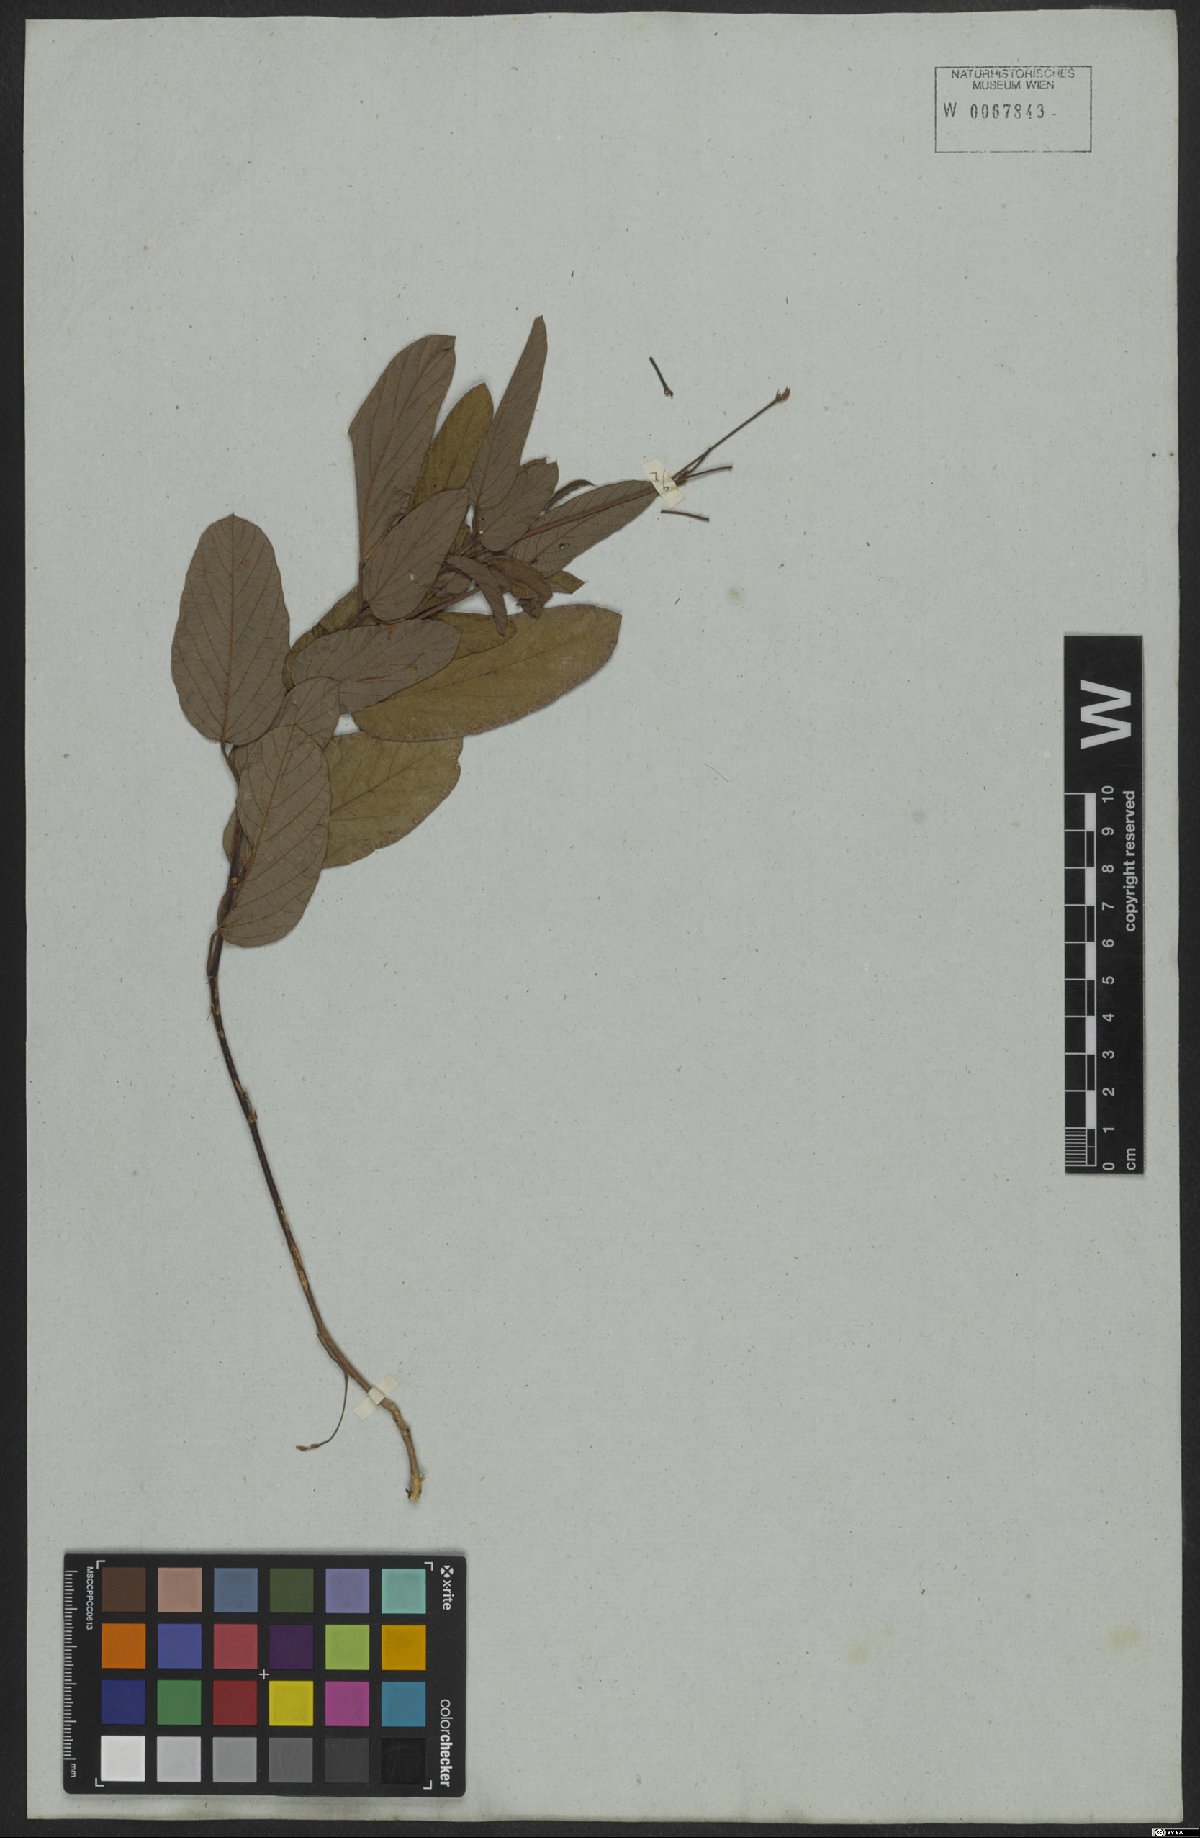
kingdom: Plantae
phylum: Tracheophyta
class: Magnoliopsida
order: Fabales
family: Fabaceae
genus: Periandra
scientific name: Periandra heterophylla
